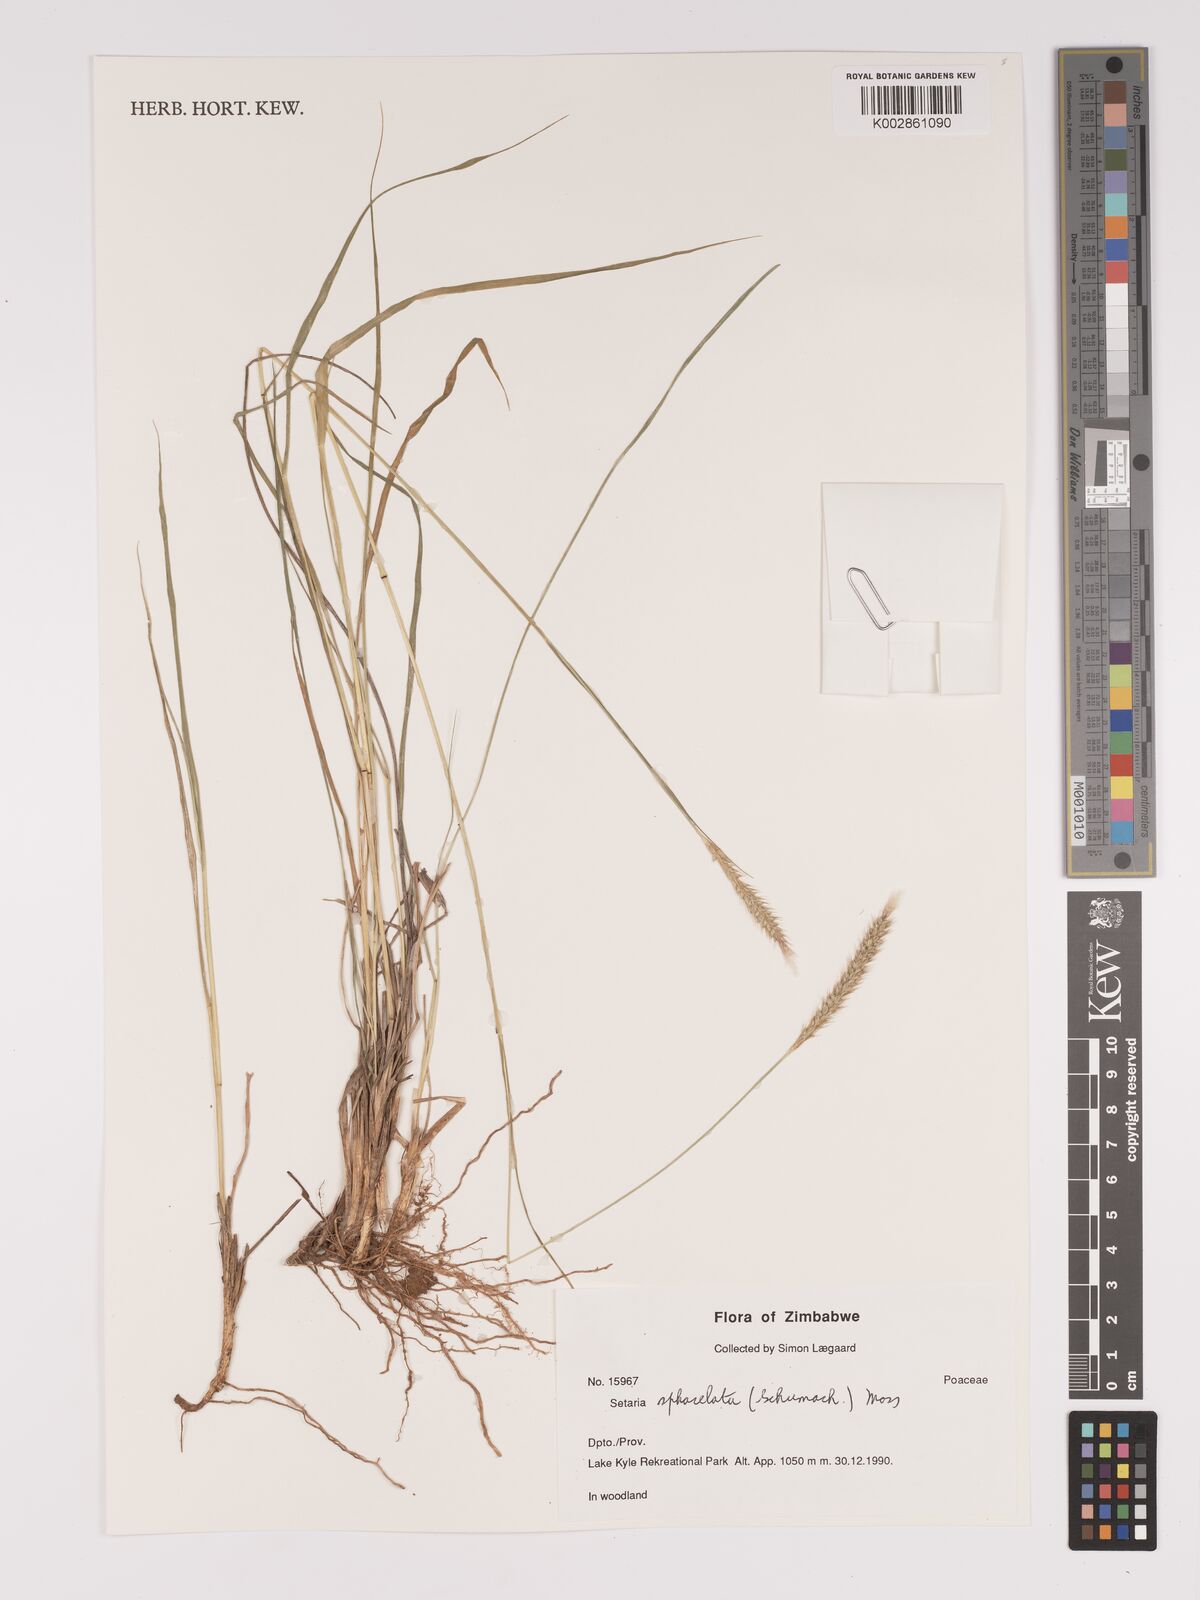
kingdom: Plantae
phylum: Tracheophyta
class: Liliopsida
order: Poales
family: Poaceae
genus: Setaria
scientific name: Setaria sphacelata
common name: African bristlegrass
